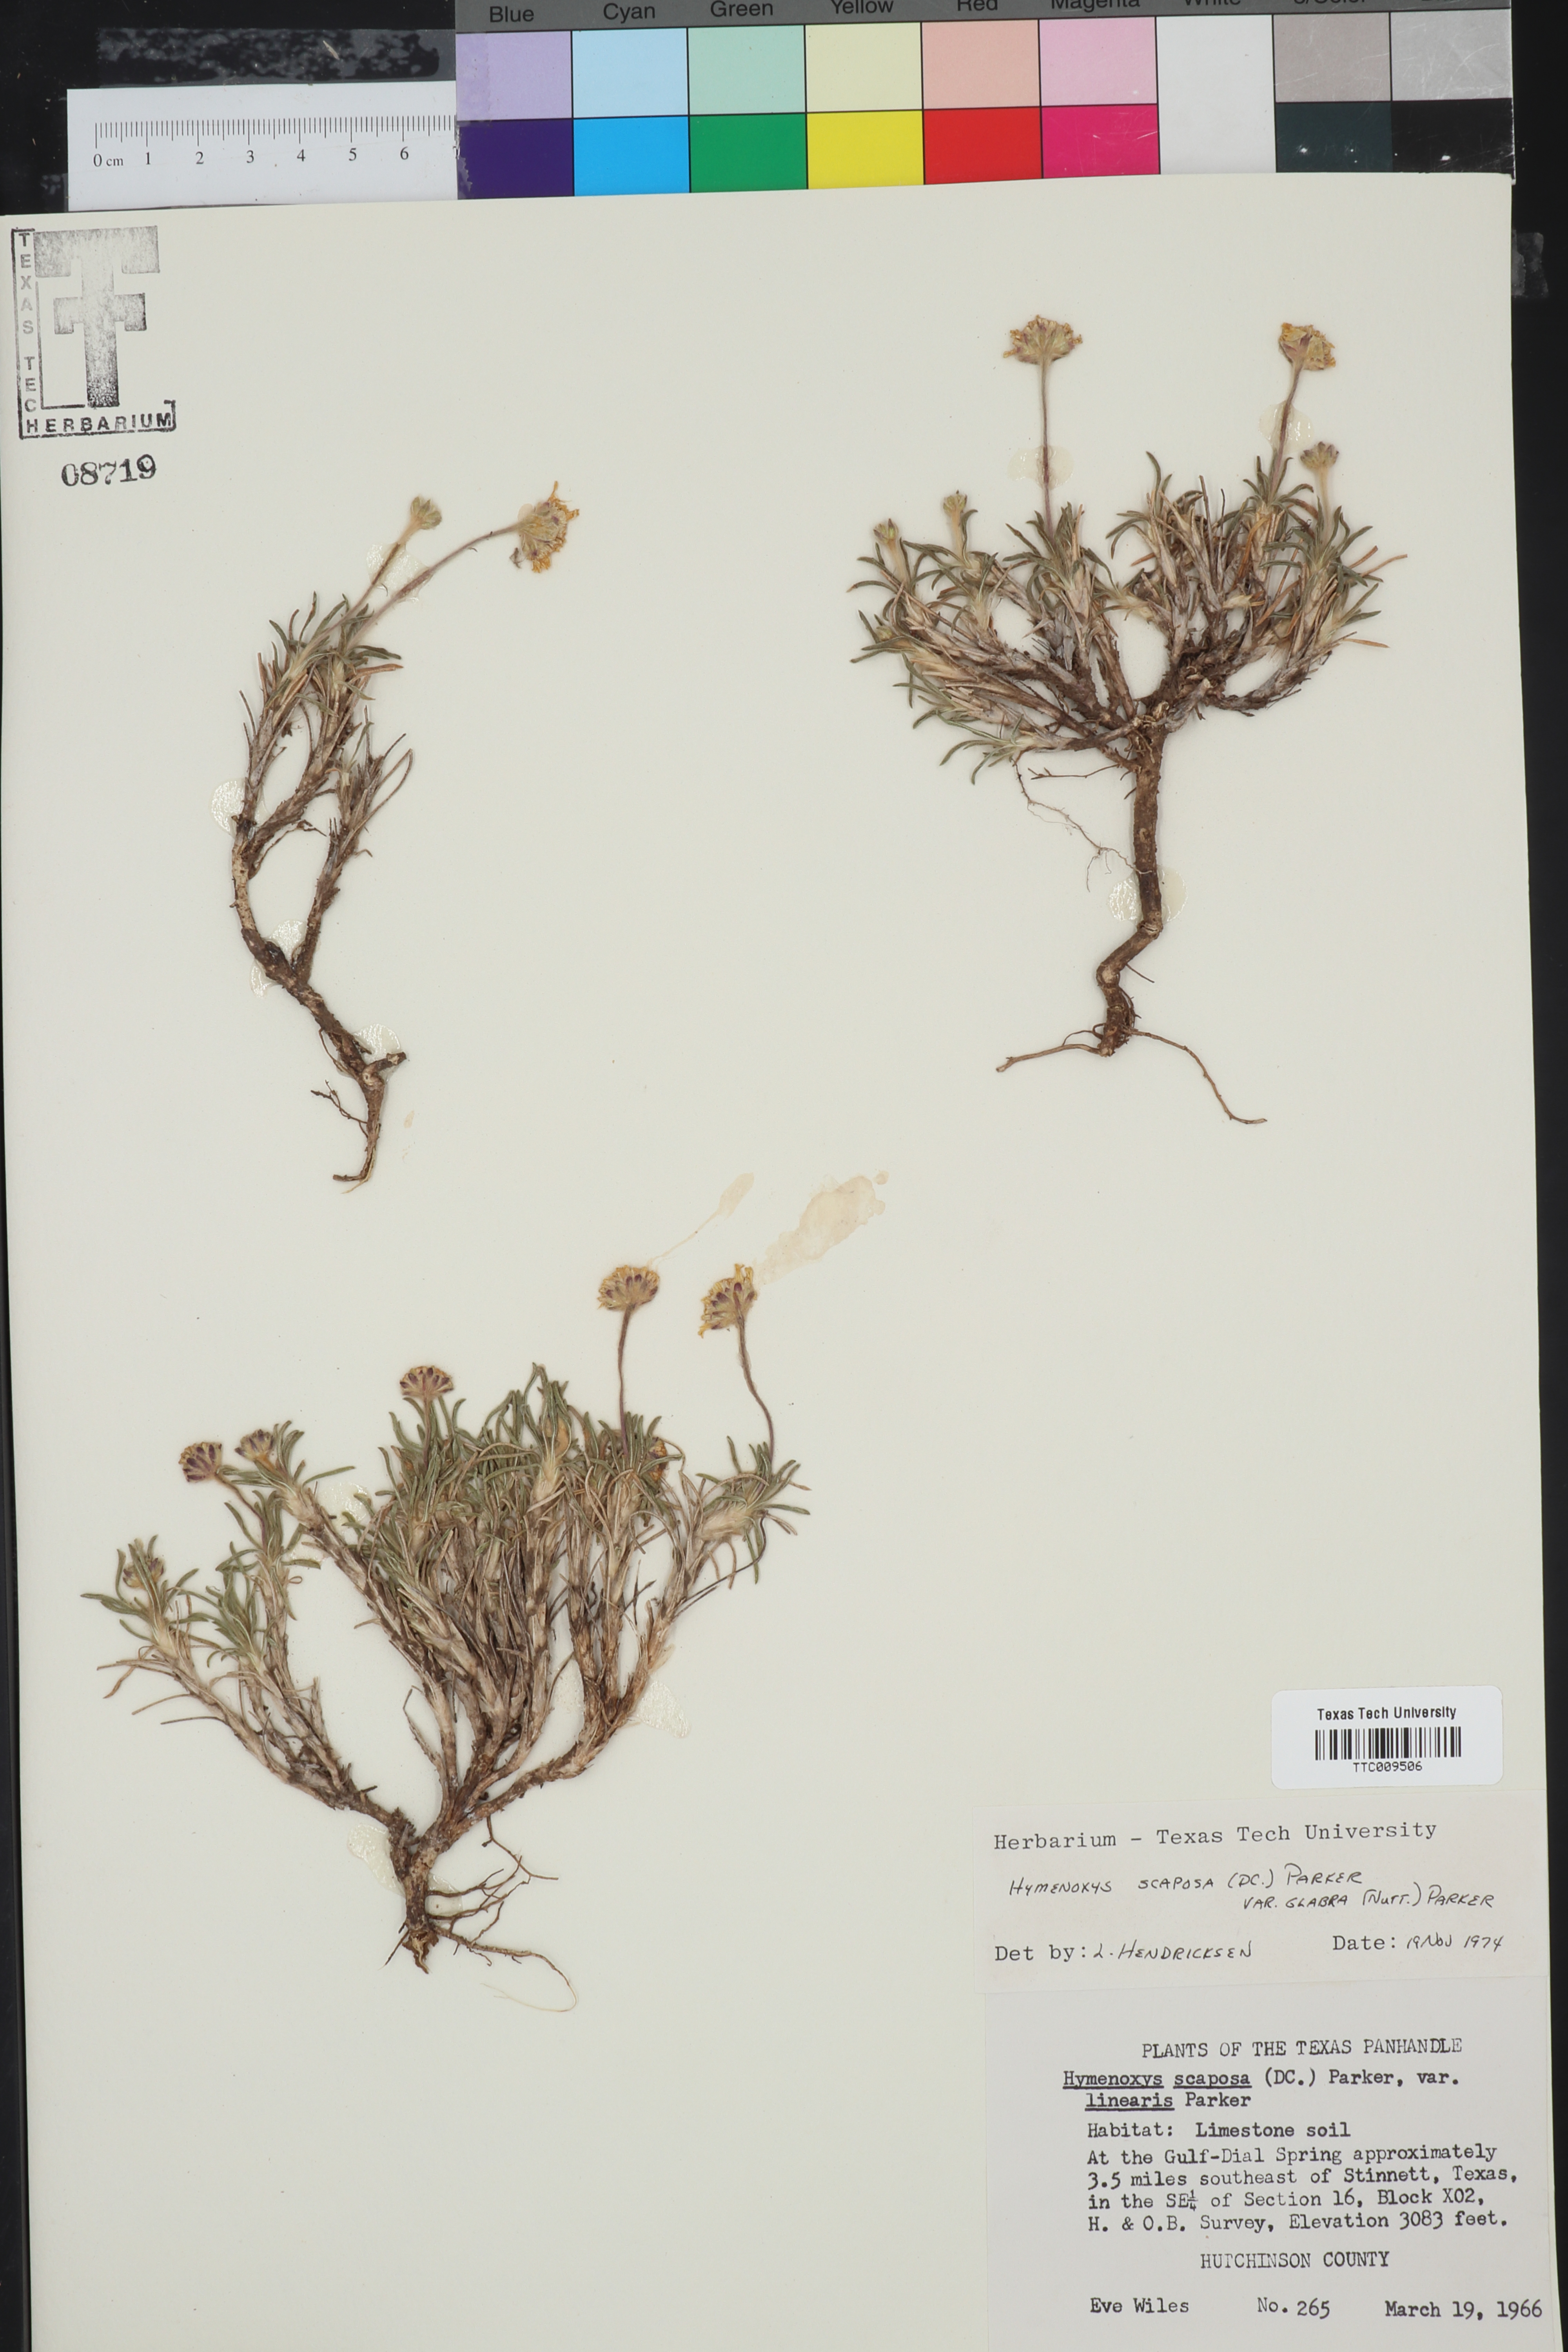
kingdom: Plantae
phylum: Tracheophyta
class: Magnoliopsida
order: Asterales
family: Asteraceae
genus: Tetraneuris
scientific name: Tetraneuris scaposa
